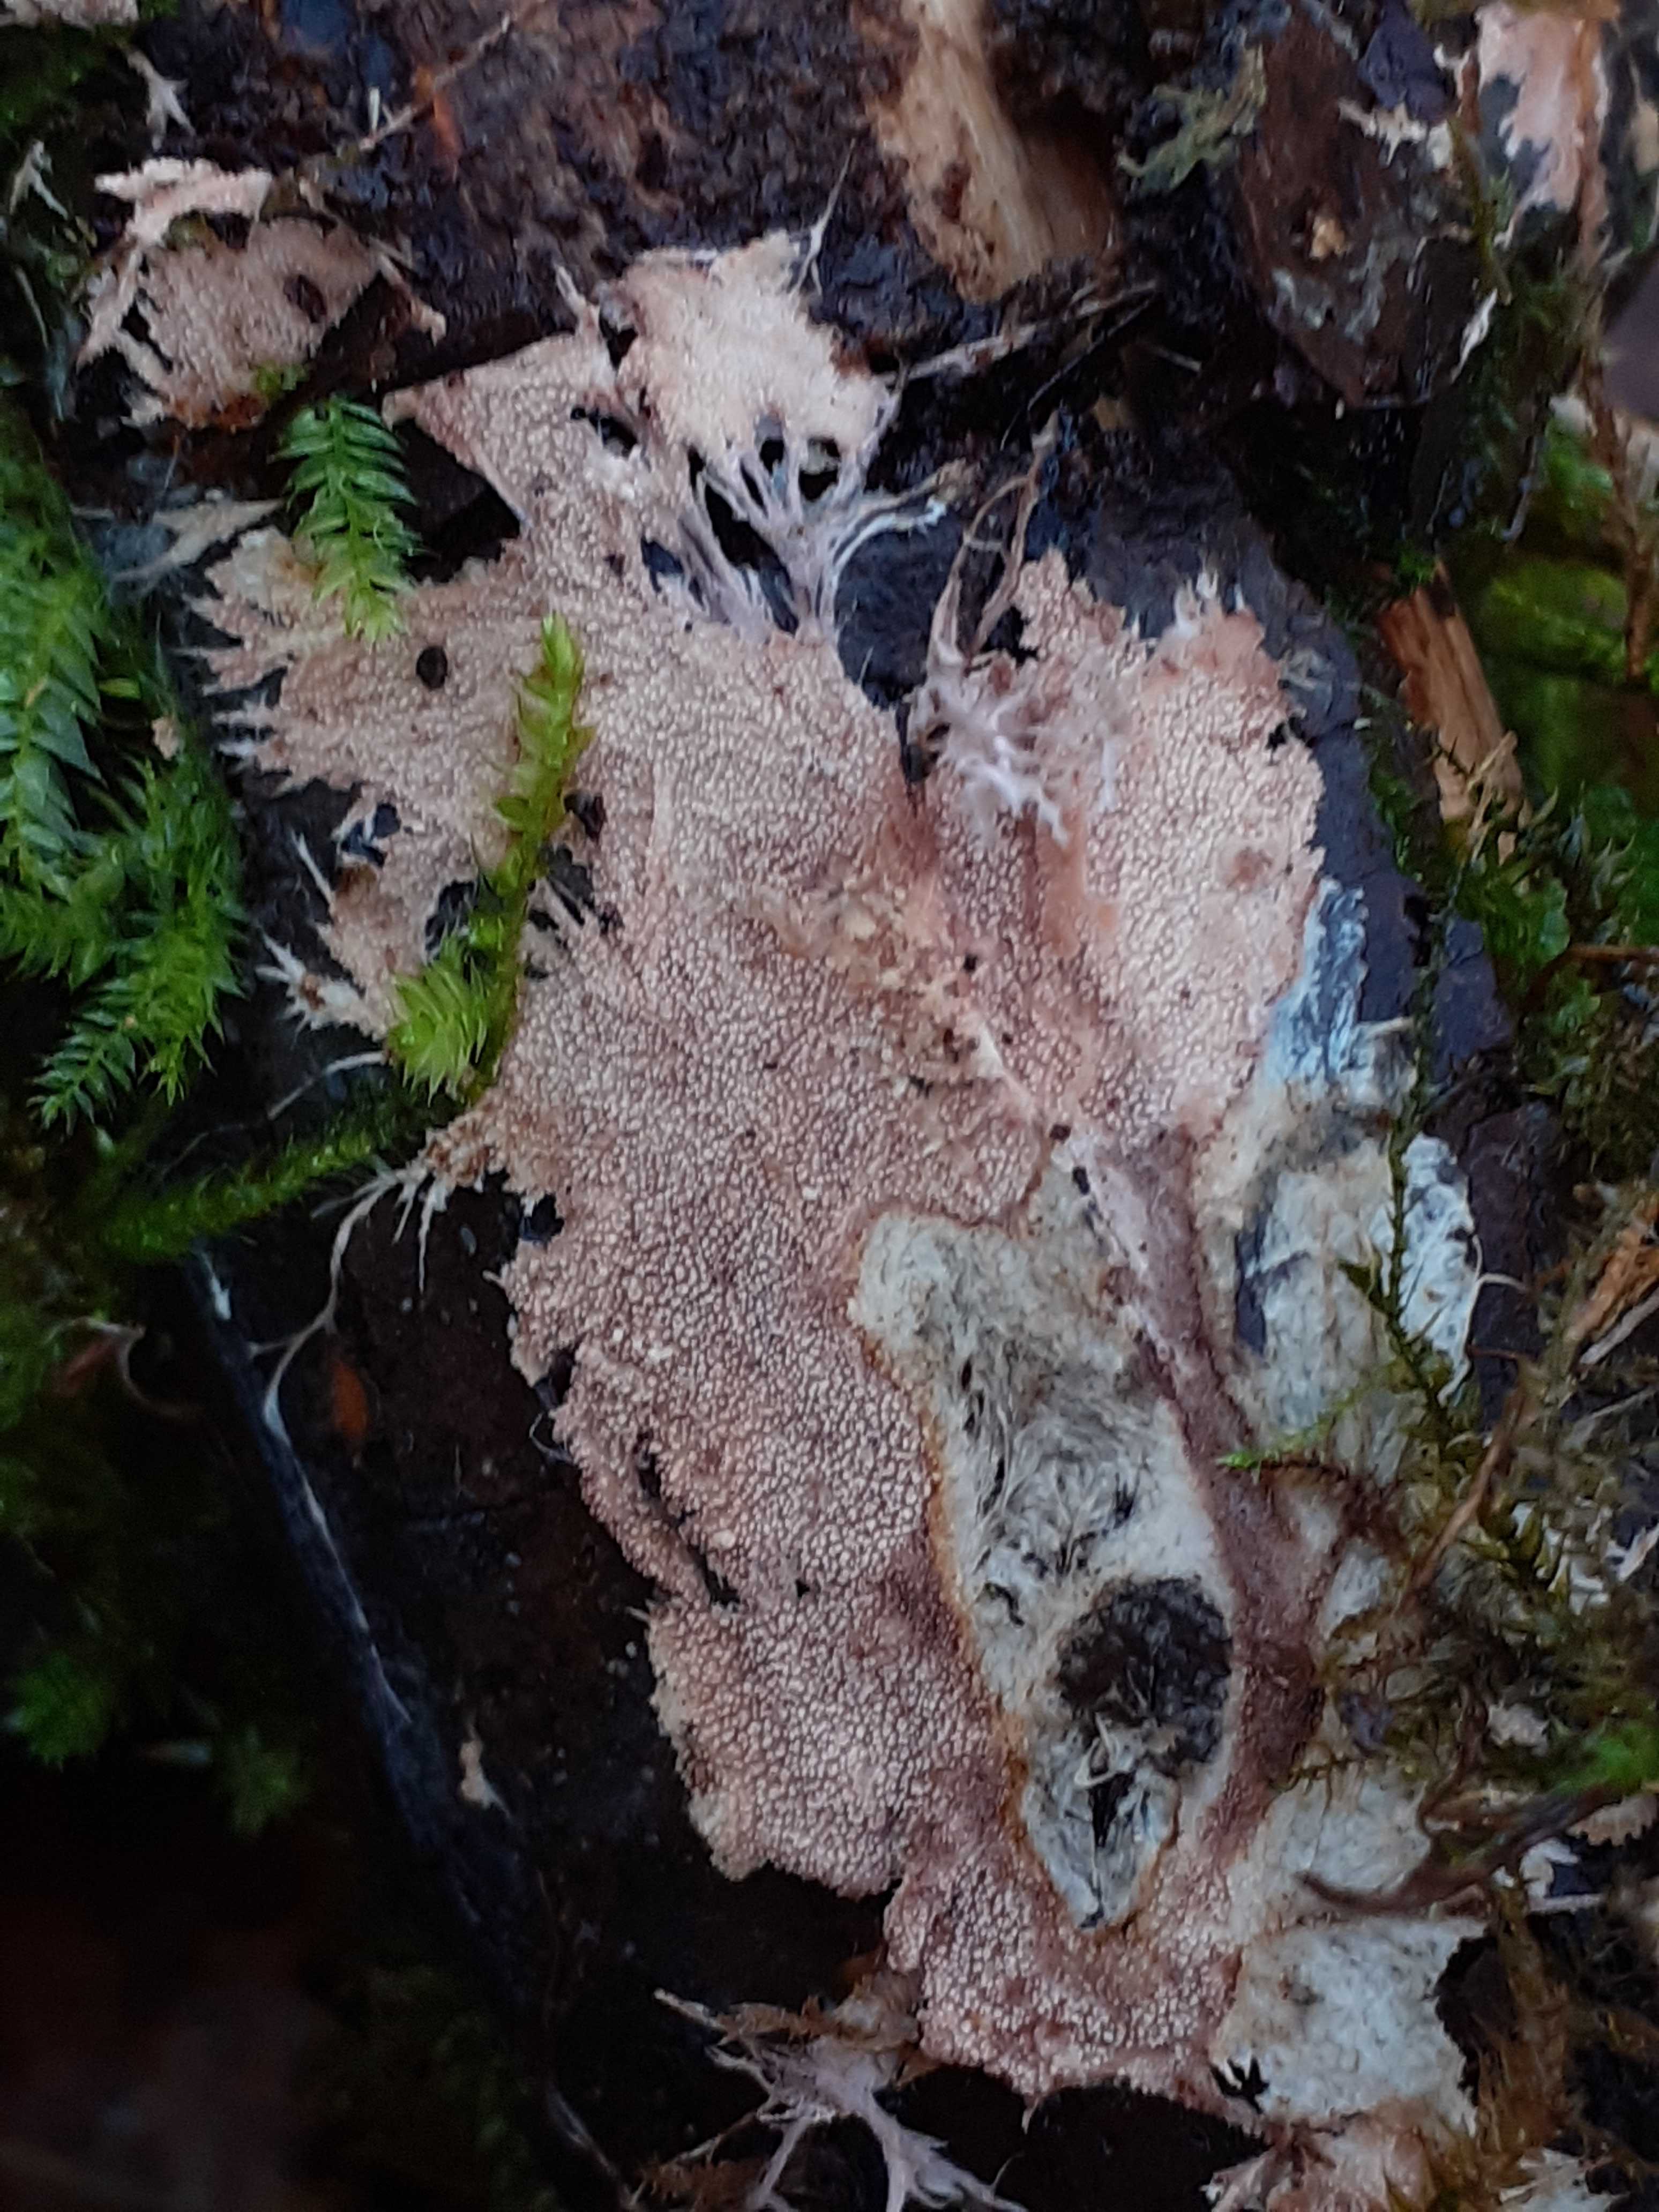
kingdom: Fungi
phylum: Basidiomycota
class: Agaricomycetes
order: Polyporales
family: Steccherinaceae
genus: Steccherinum
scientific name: Steccherinum fimbriatum
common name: trådet skønpig
